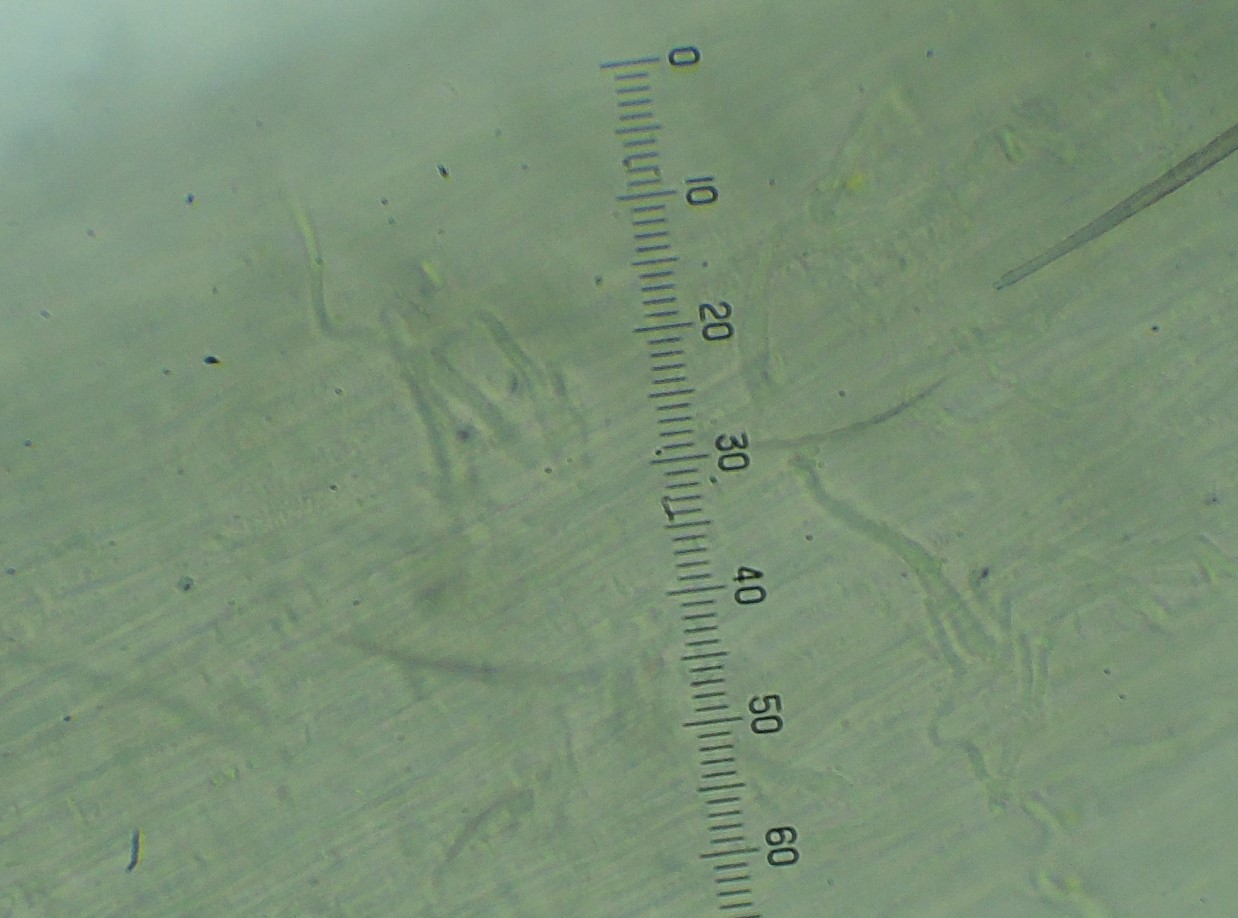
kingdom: Fungi
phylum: Basidiomycota
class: Agaricomycetes
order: Agaricales
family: Mycenaceae
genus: Hemimycena
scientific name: Hemimycena hirsuta
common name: håret huesvamp
